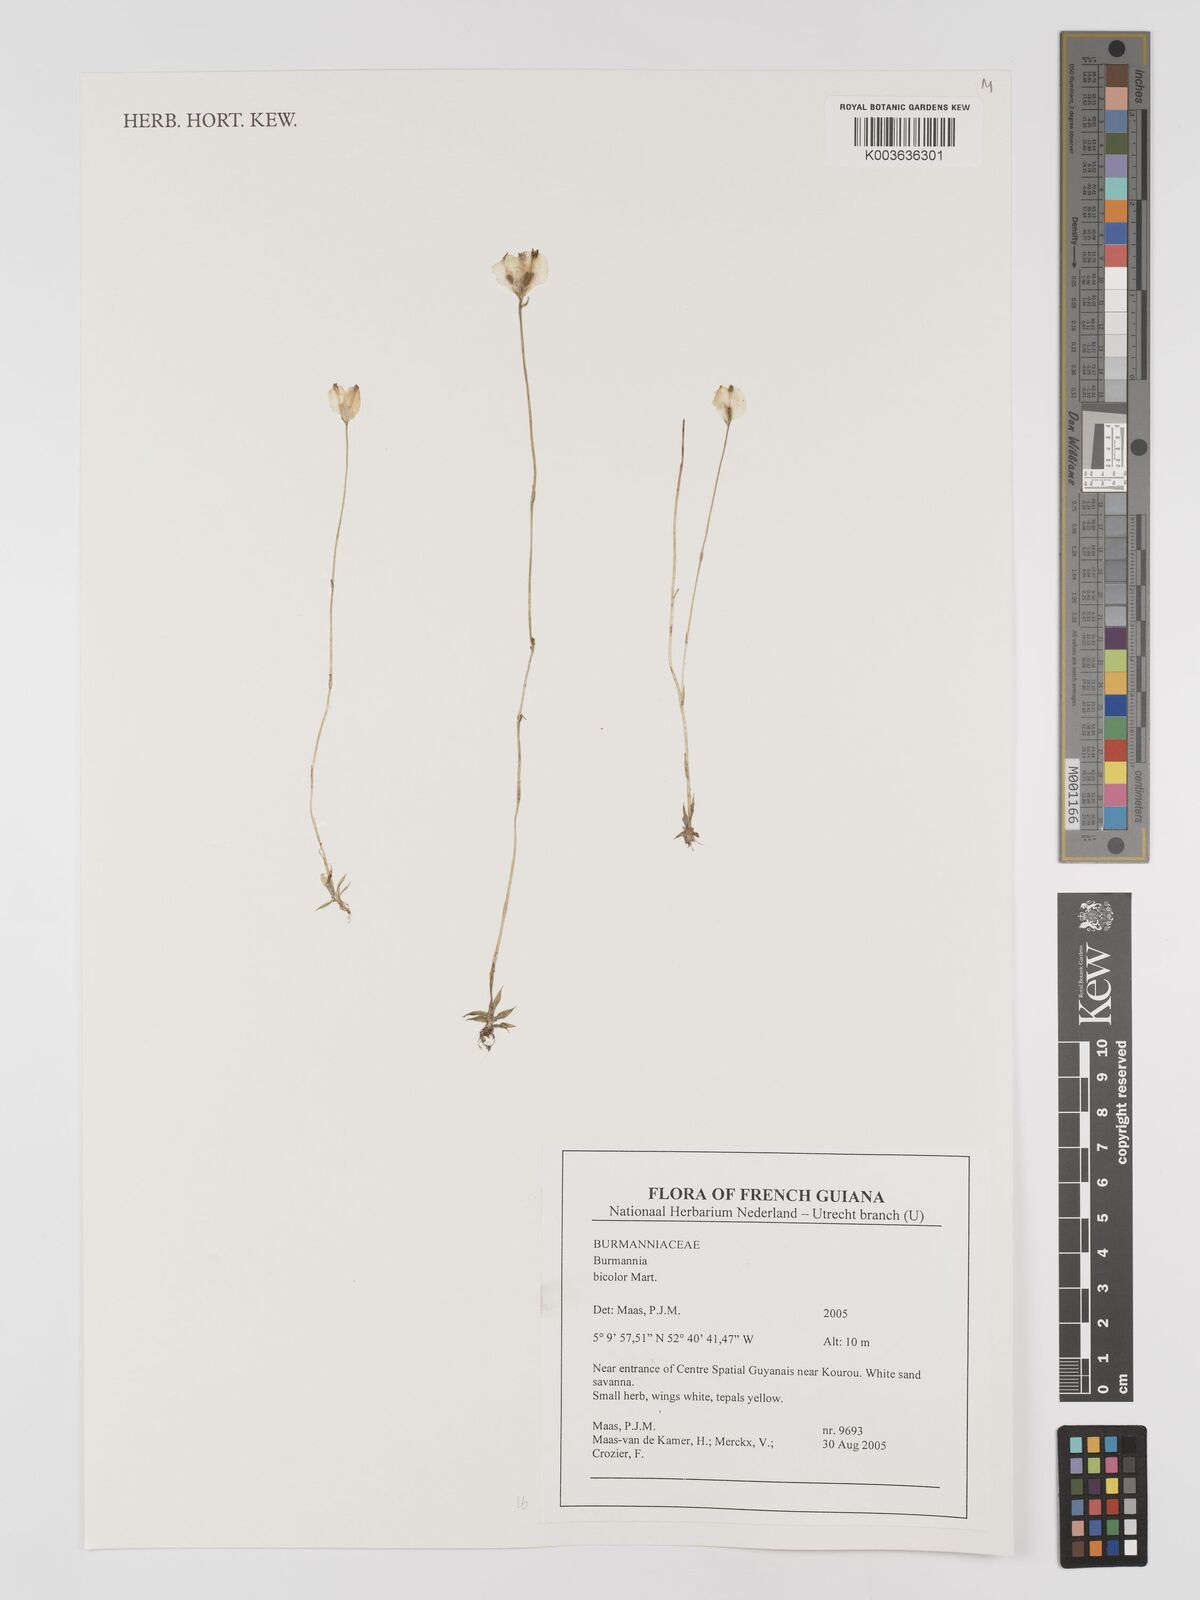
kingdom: Plantae
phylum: Tracheophyta
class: Liliopsida
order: Dioscoreales
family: Burmanniaceae
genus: Burmannia
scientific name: Burmannia bicolor
